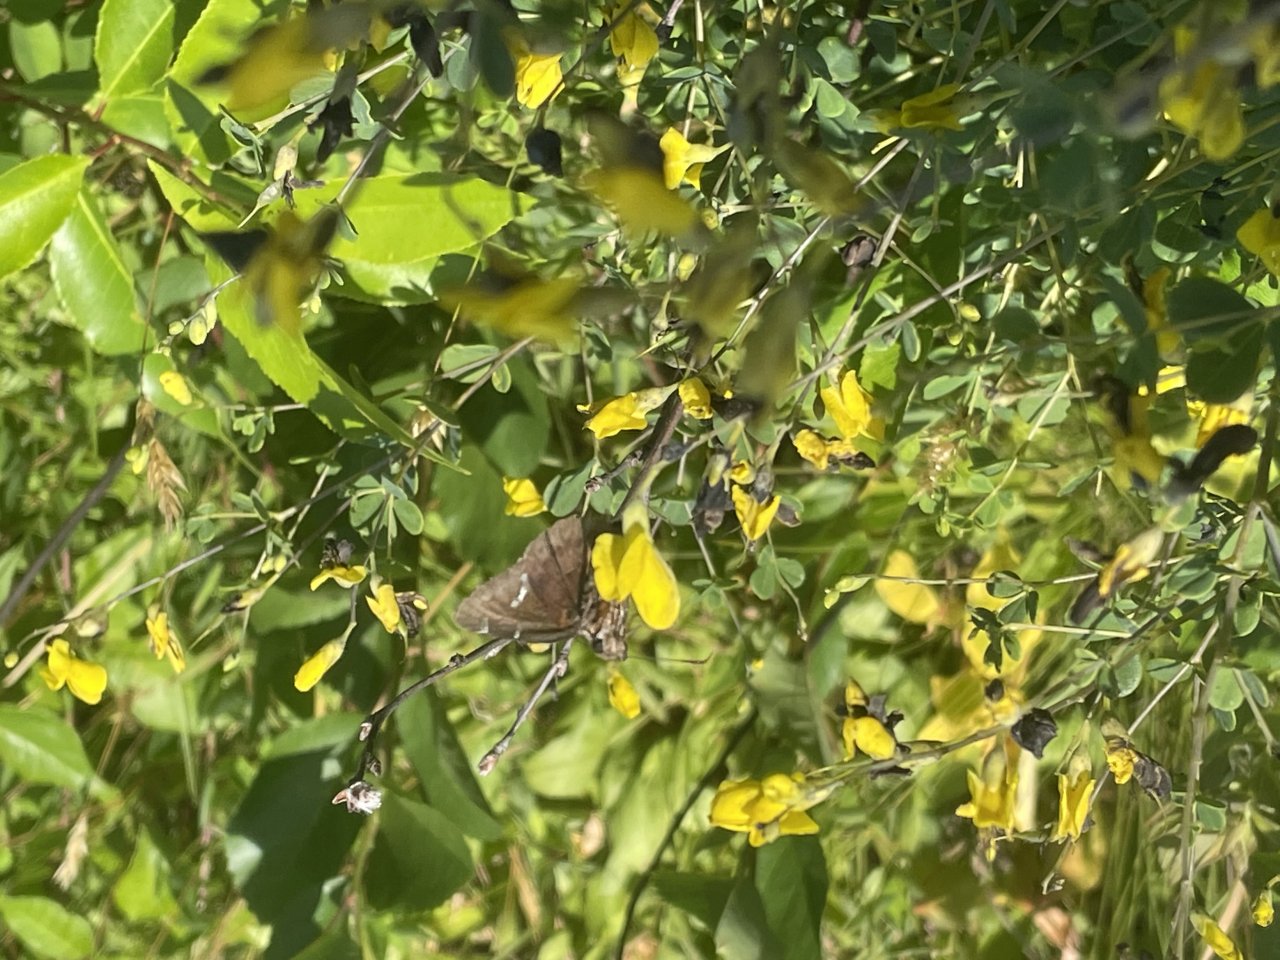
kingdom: Animalia
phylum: Arthropoda
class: Insecta
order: Lepidoptera
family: Hesperiidae
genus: Autochton
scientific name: Autochton
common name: Southern Cloudywing
